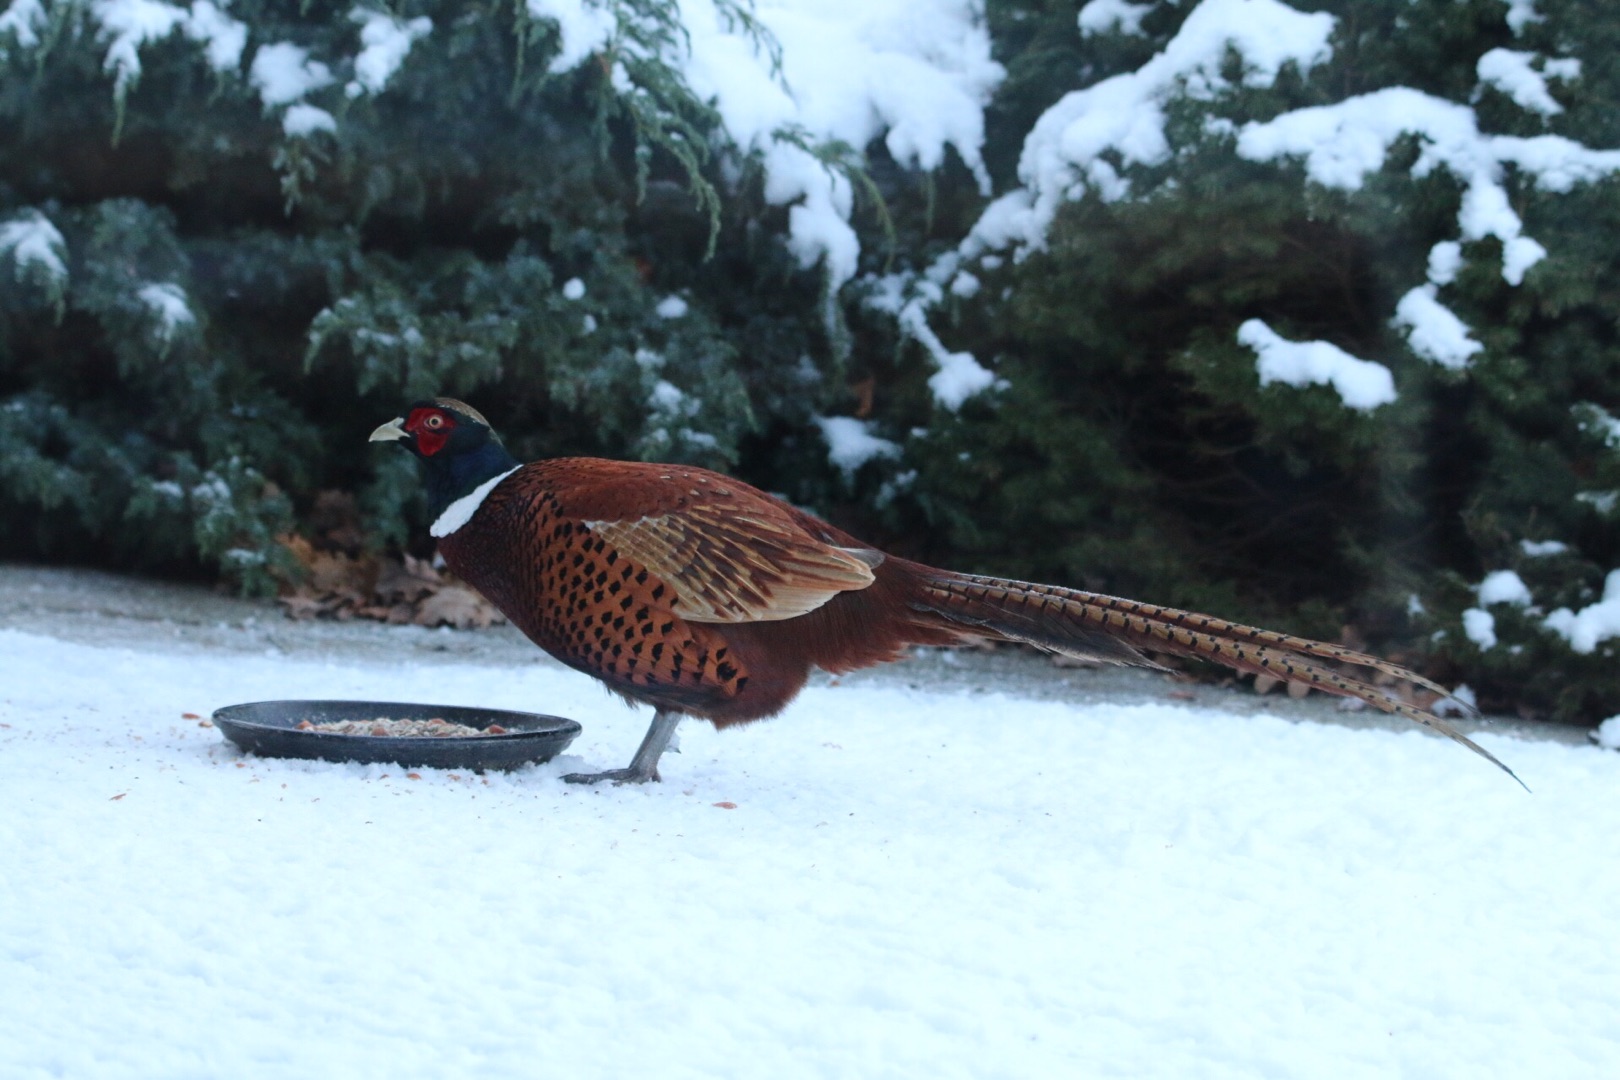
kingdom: Animalia
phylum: Chordata
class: Aves
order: Galliformes
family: Phasianidae
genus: Phasianus
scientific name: Phasianus colchicus
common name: Fasan
